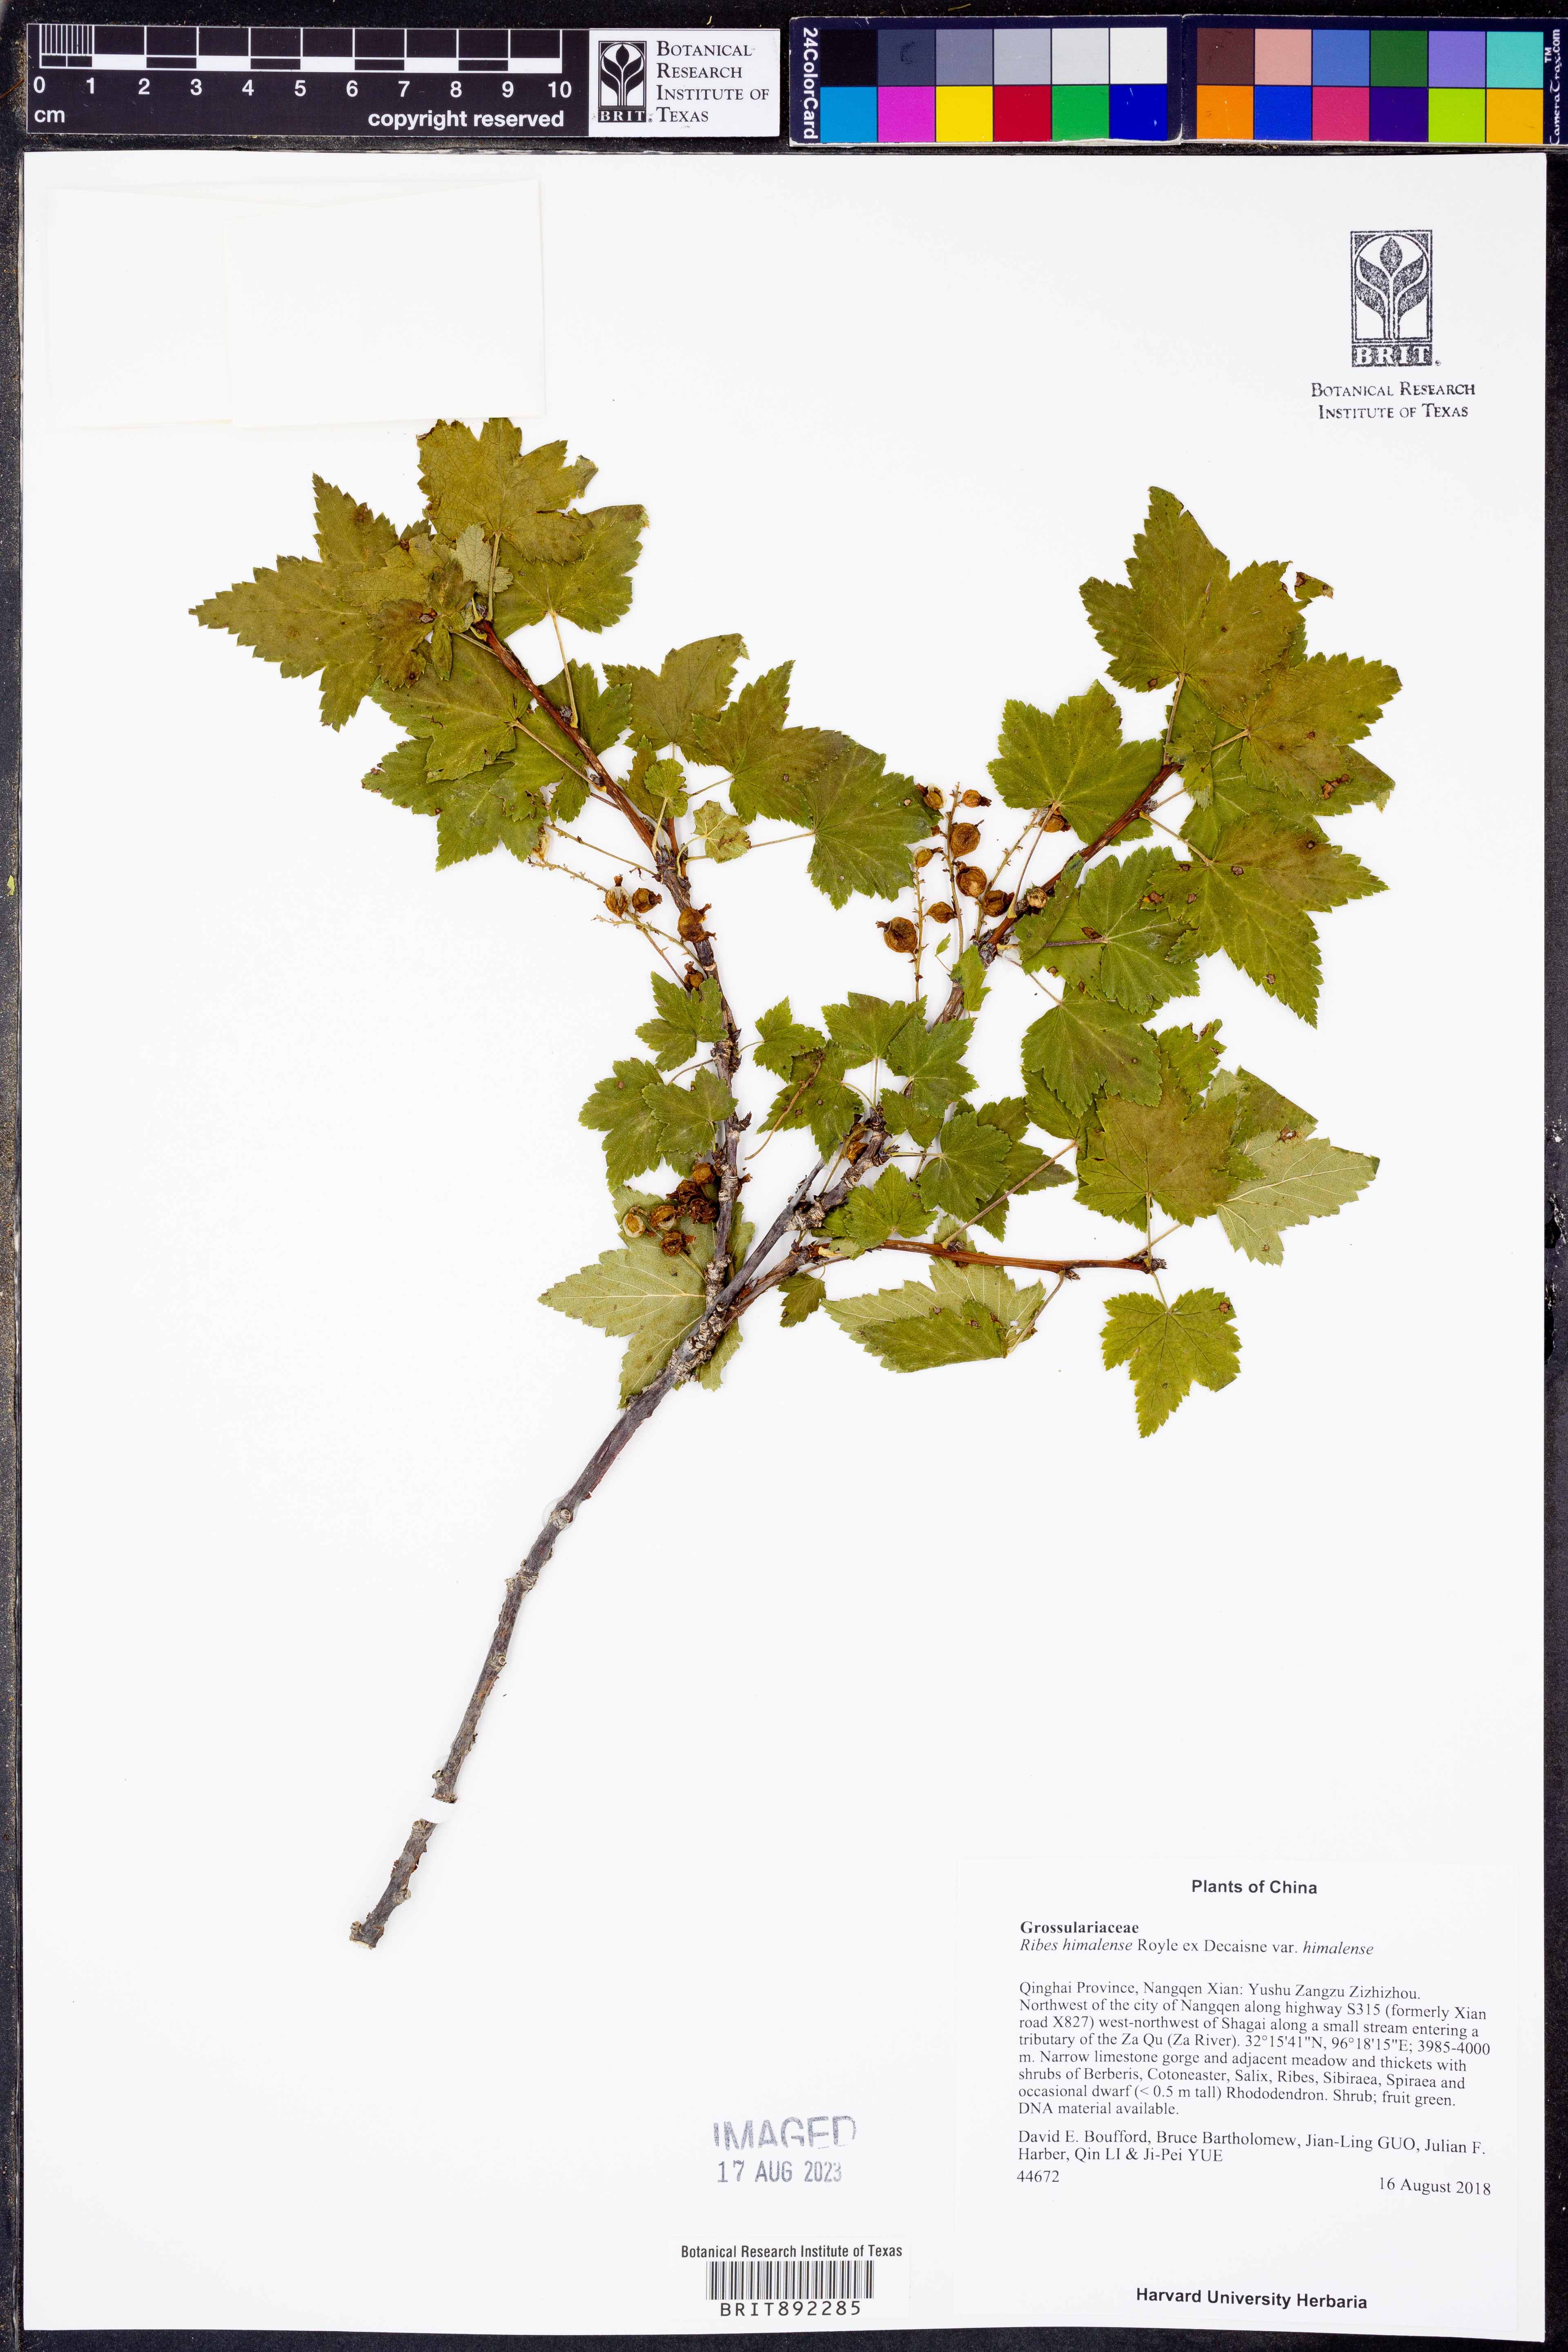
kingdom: Plantae
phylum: Tracheophyta
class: Magnoliopsida
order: Saxifragales
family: Grossulariaceae
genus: Ribes
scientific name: Ribes himalense
